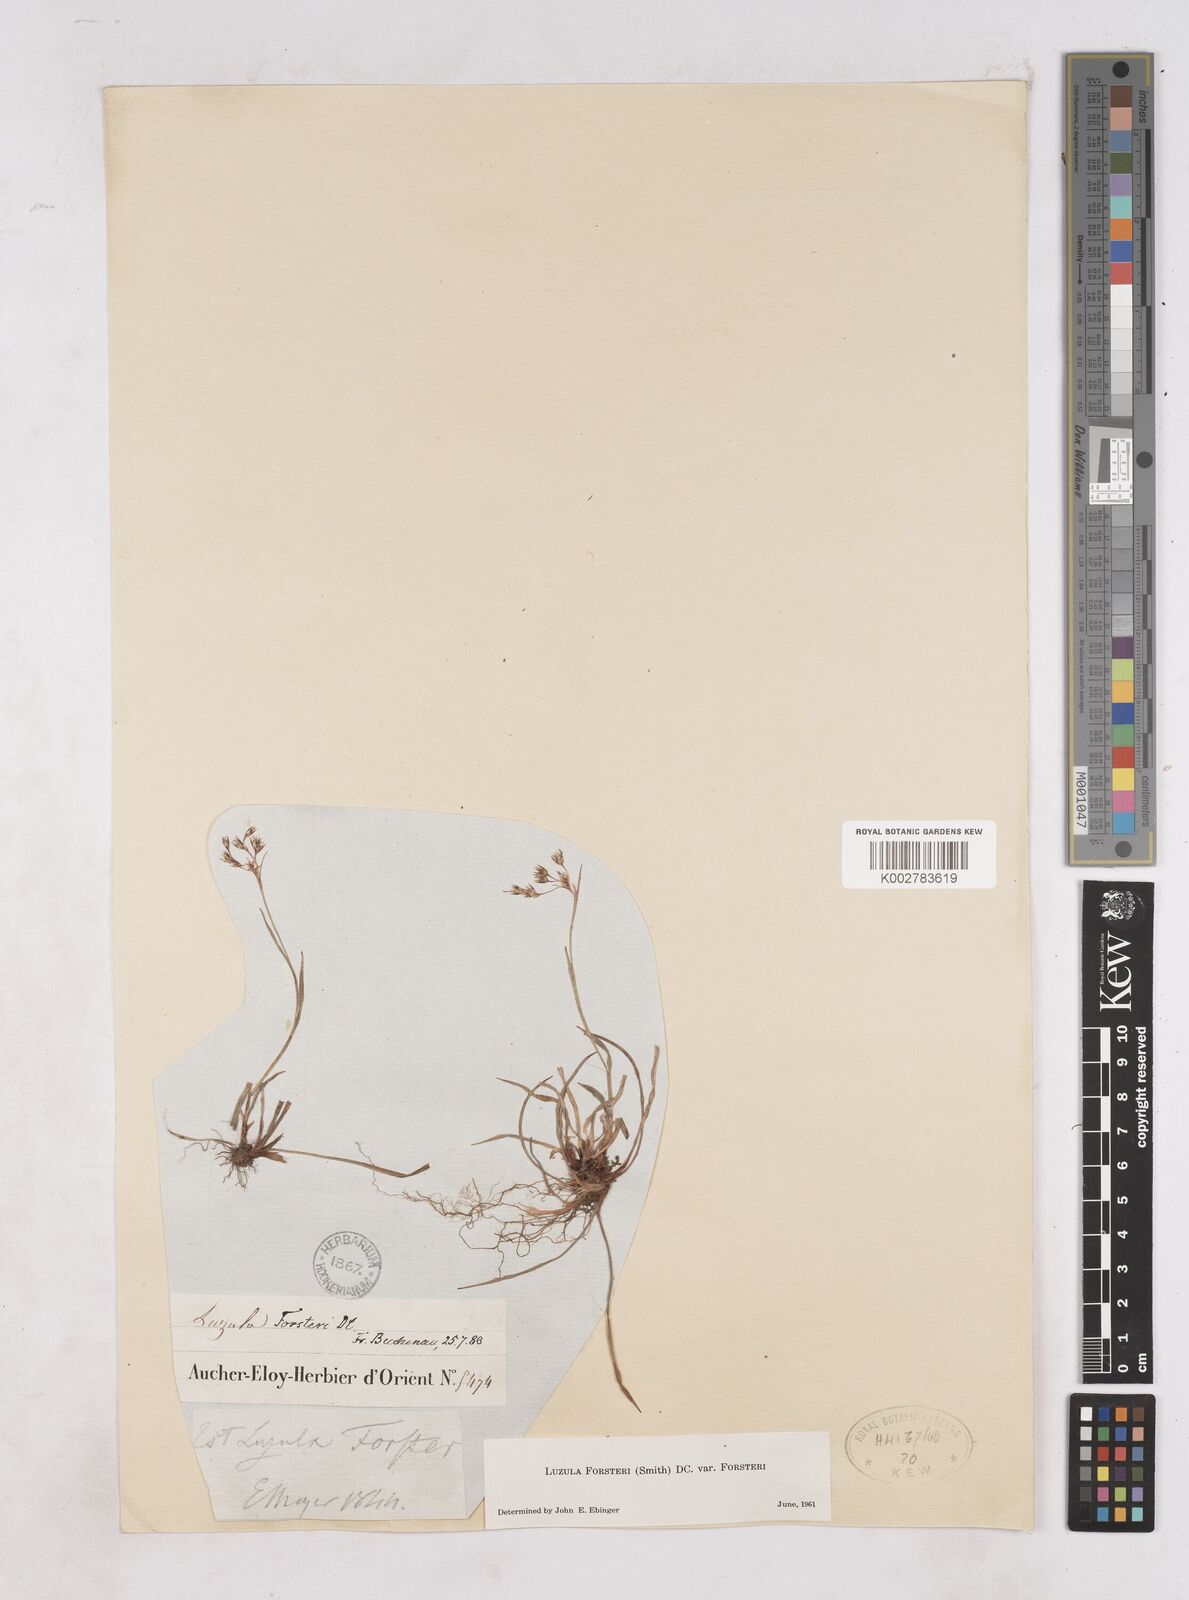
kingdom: Plantae
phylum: Tracheophyta
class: Liliopsida
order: Poales
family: Juncaceae
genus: Luzula
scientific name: Luzula forsteri
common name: Southern wood-rush
